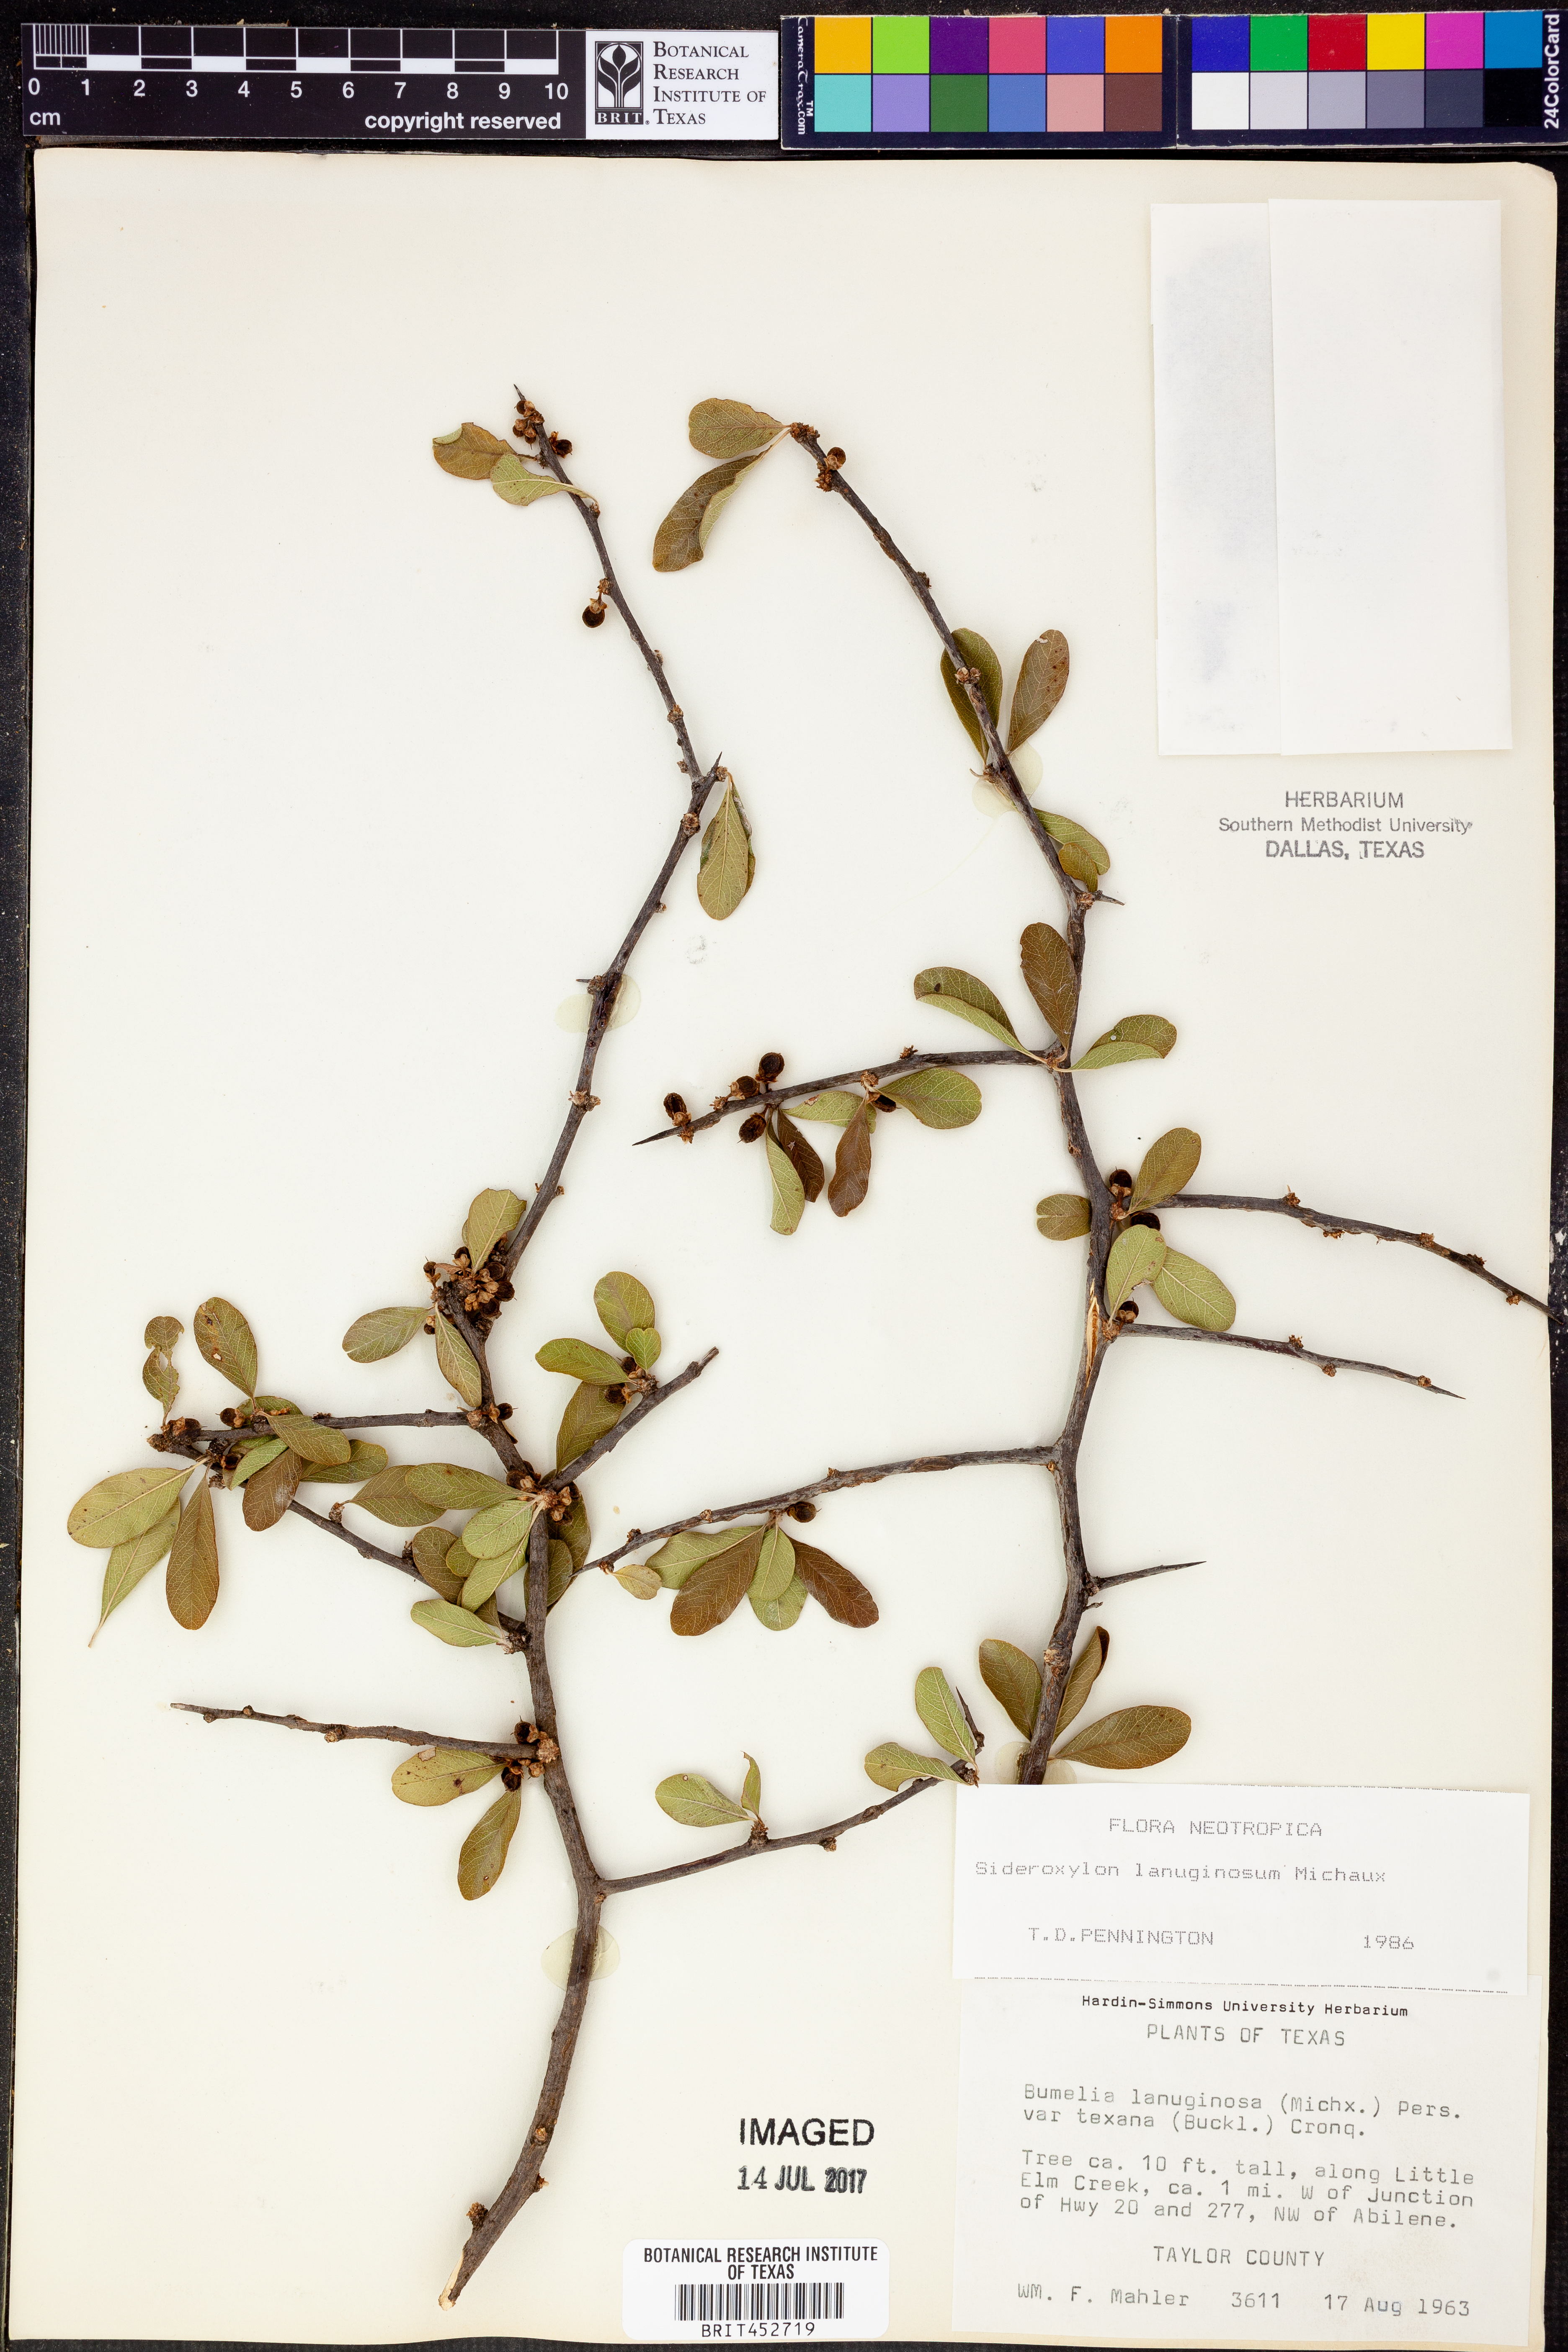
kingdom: Plantae
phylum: Tracheophyta
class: Magnoliopsida
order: Ericales
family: Sapotaceae
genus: Sideroxylon
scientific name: Sideroxylon lanuginosum
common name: Chittamwood
